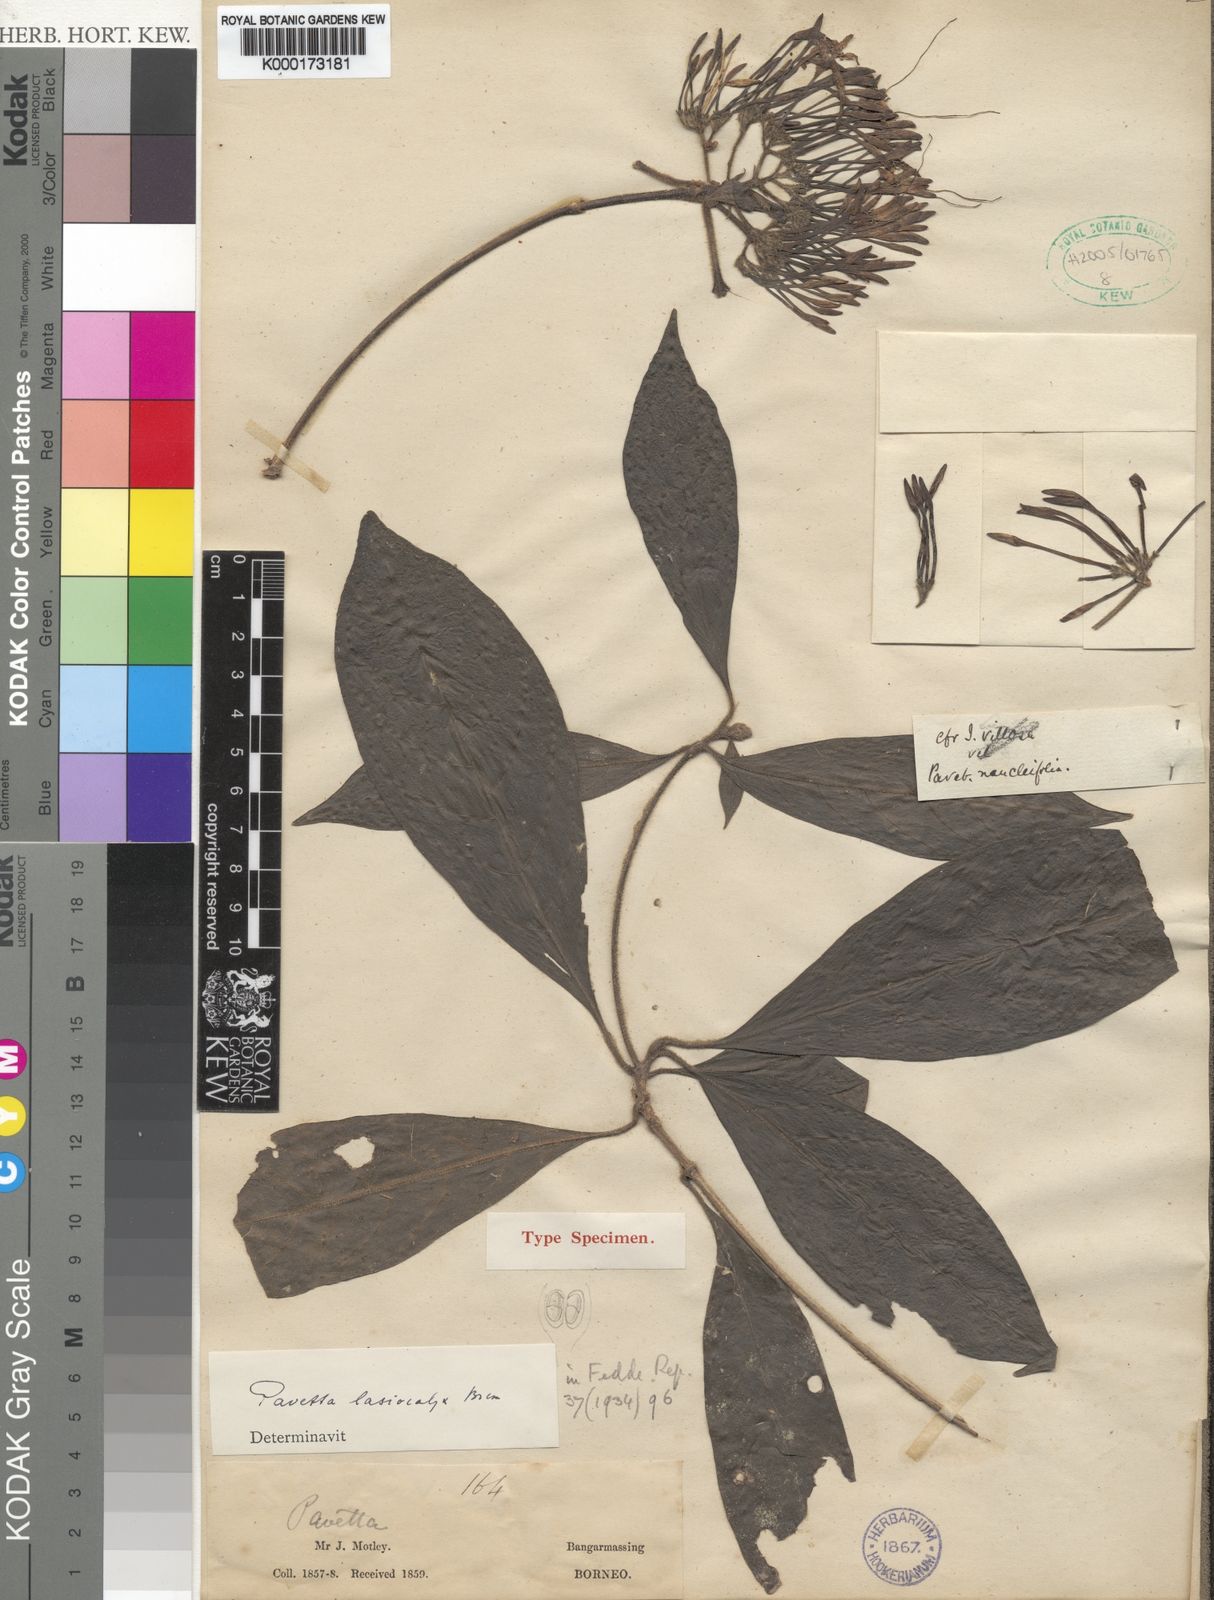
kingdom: Plantae
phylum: Tracheophyta
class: Magnoliopsida
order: Gentianales
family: Rubiaceae
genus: Pavetta
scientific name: Pavetta lasiocalyx
